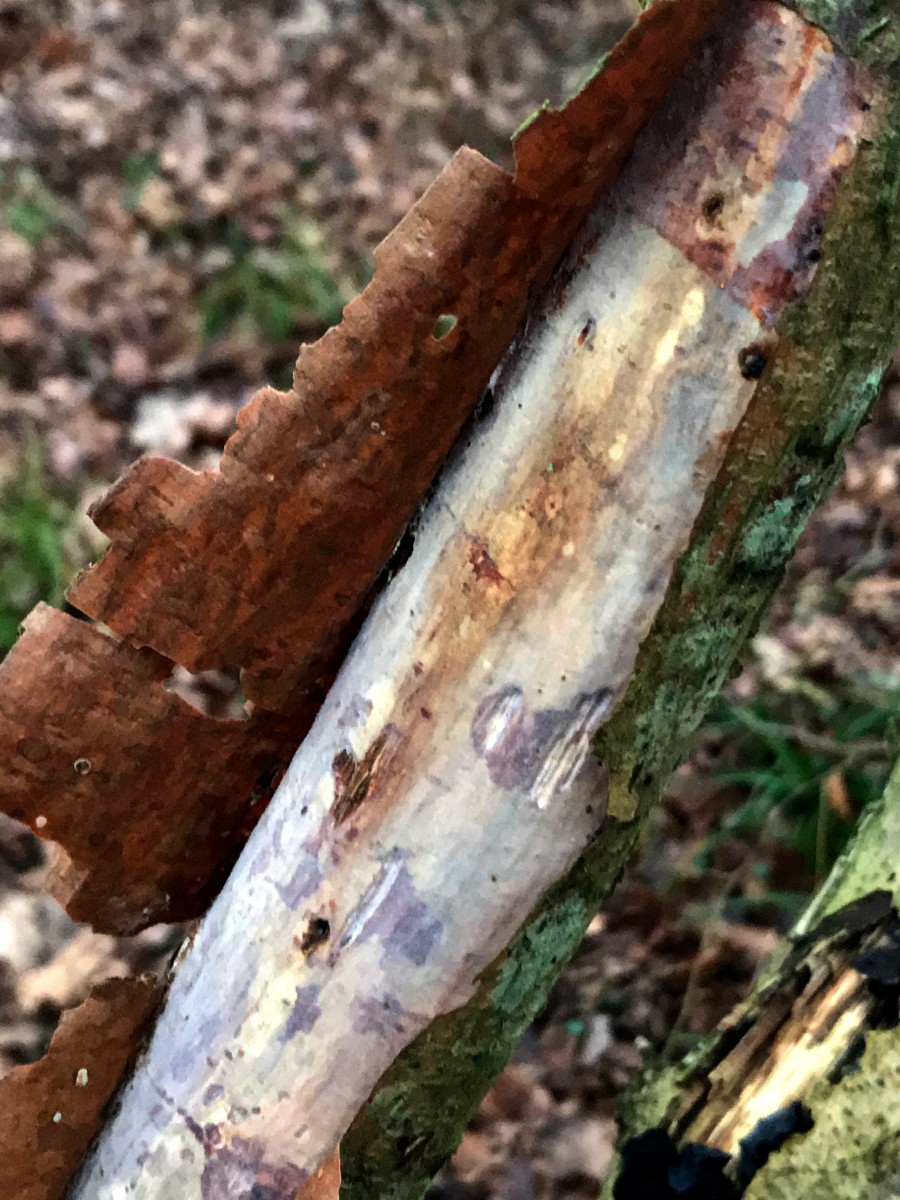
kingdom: Fungi
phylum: Basidiomycota
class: Agaricomycetes
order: Corticiales
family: Vuilleminiaceae
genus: Vuilleminia
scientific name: Vuilleminia coryli
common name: hassel-barksprænger
